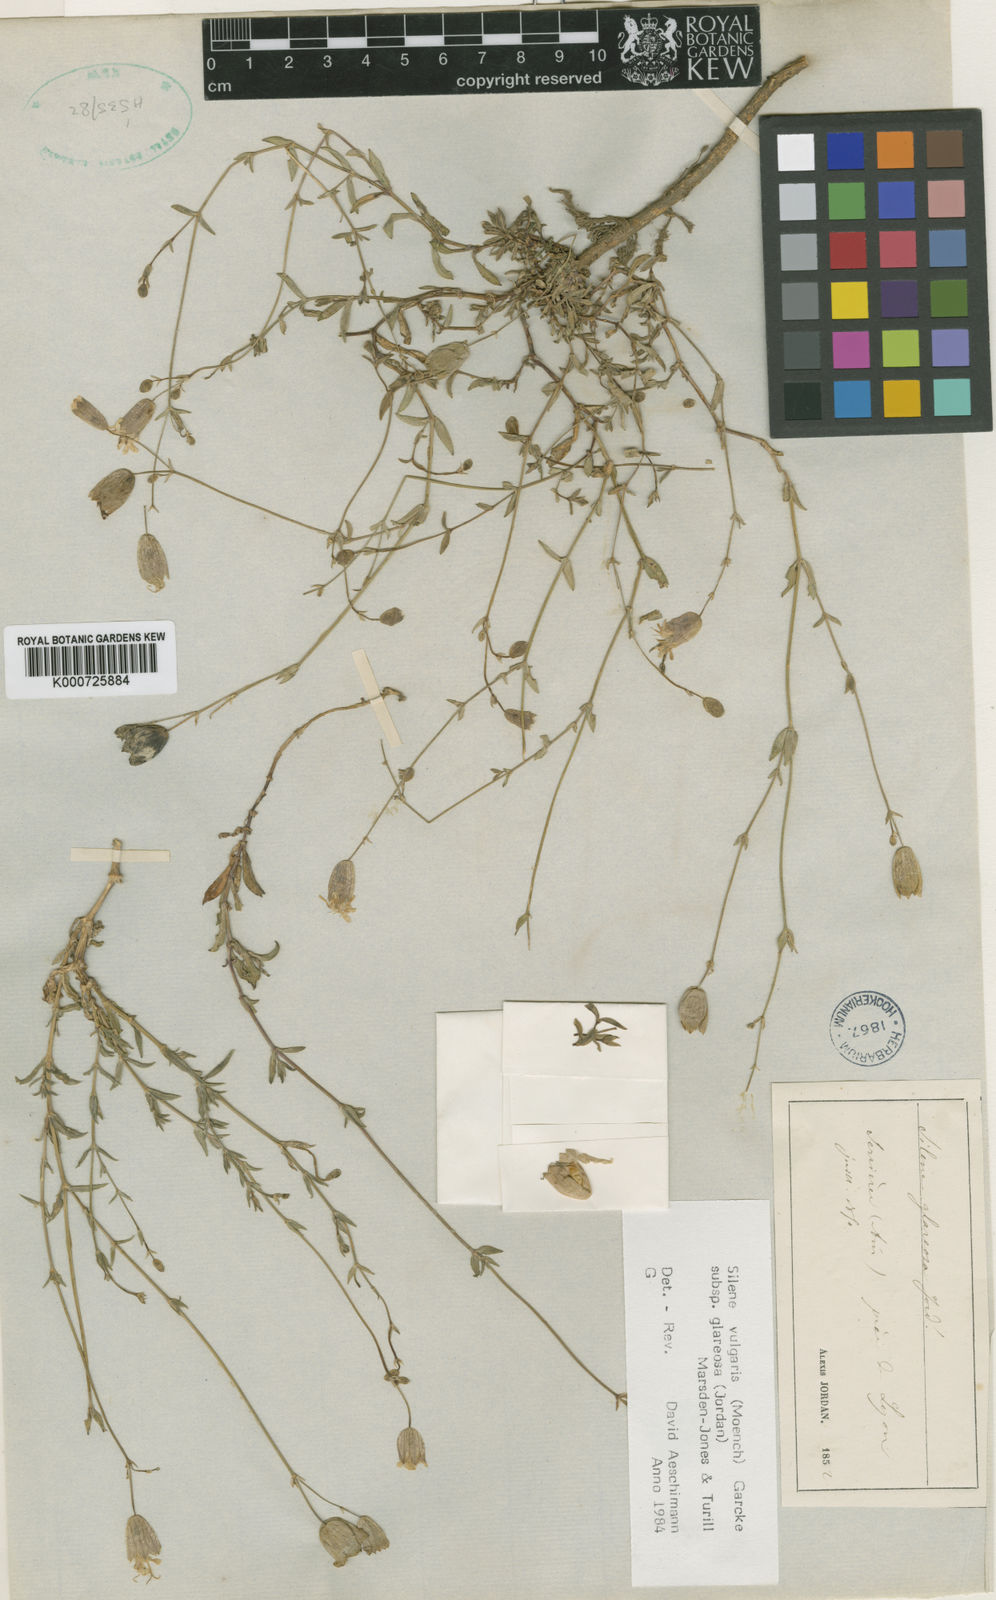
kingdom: Plantae
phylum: Tracheophyta
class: Magnoliopsida
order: Caryophyllales
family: Caryophyllaceae
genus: Silene
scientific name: Silene vulgaris
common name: Bladder campion
